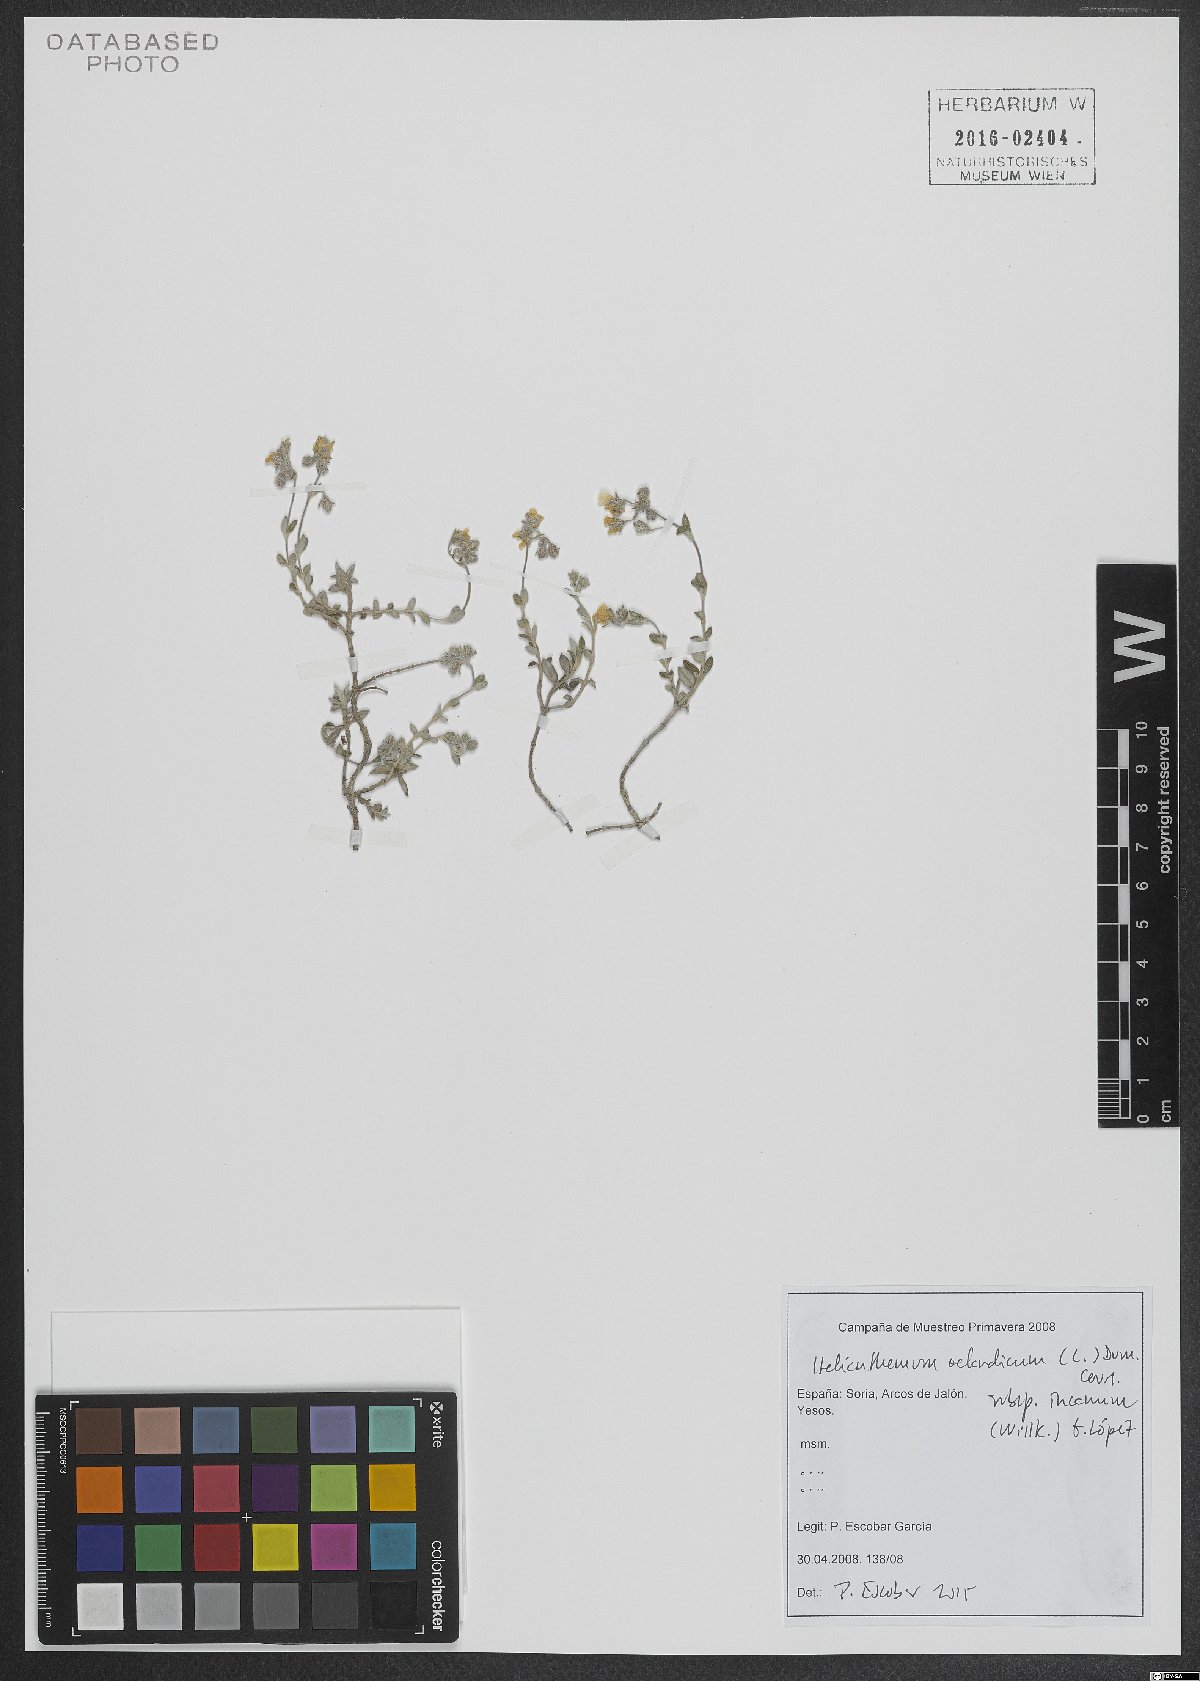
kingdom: Plantae
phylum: Tracheophyta
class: Magnoliopsida
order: Malvales
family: Cistaceae
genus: Helianthemum
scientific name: Helianthemum oelandicum
